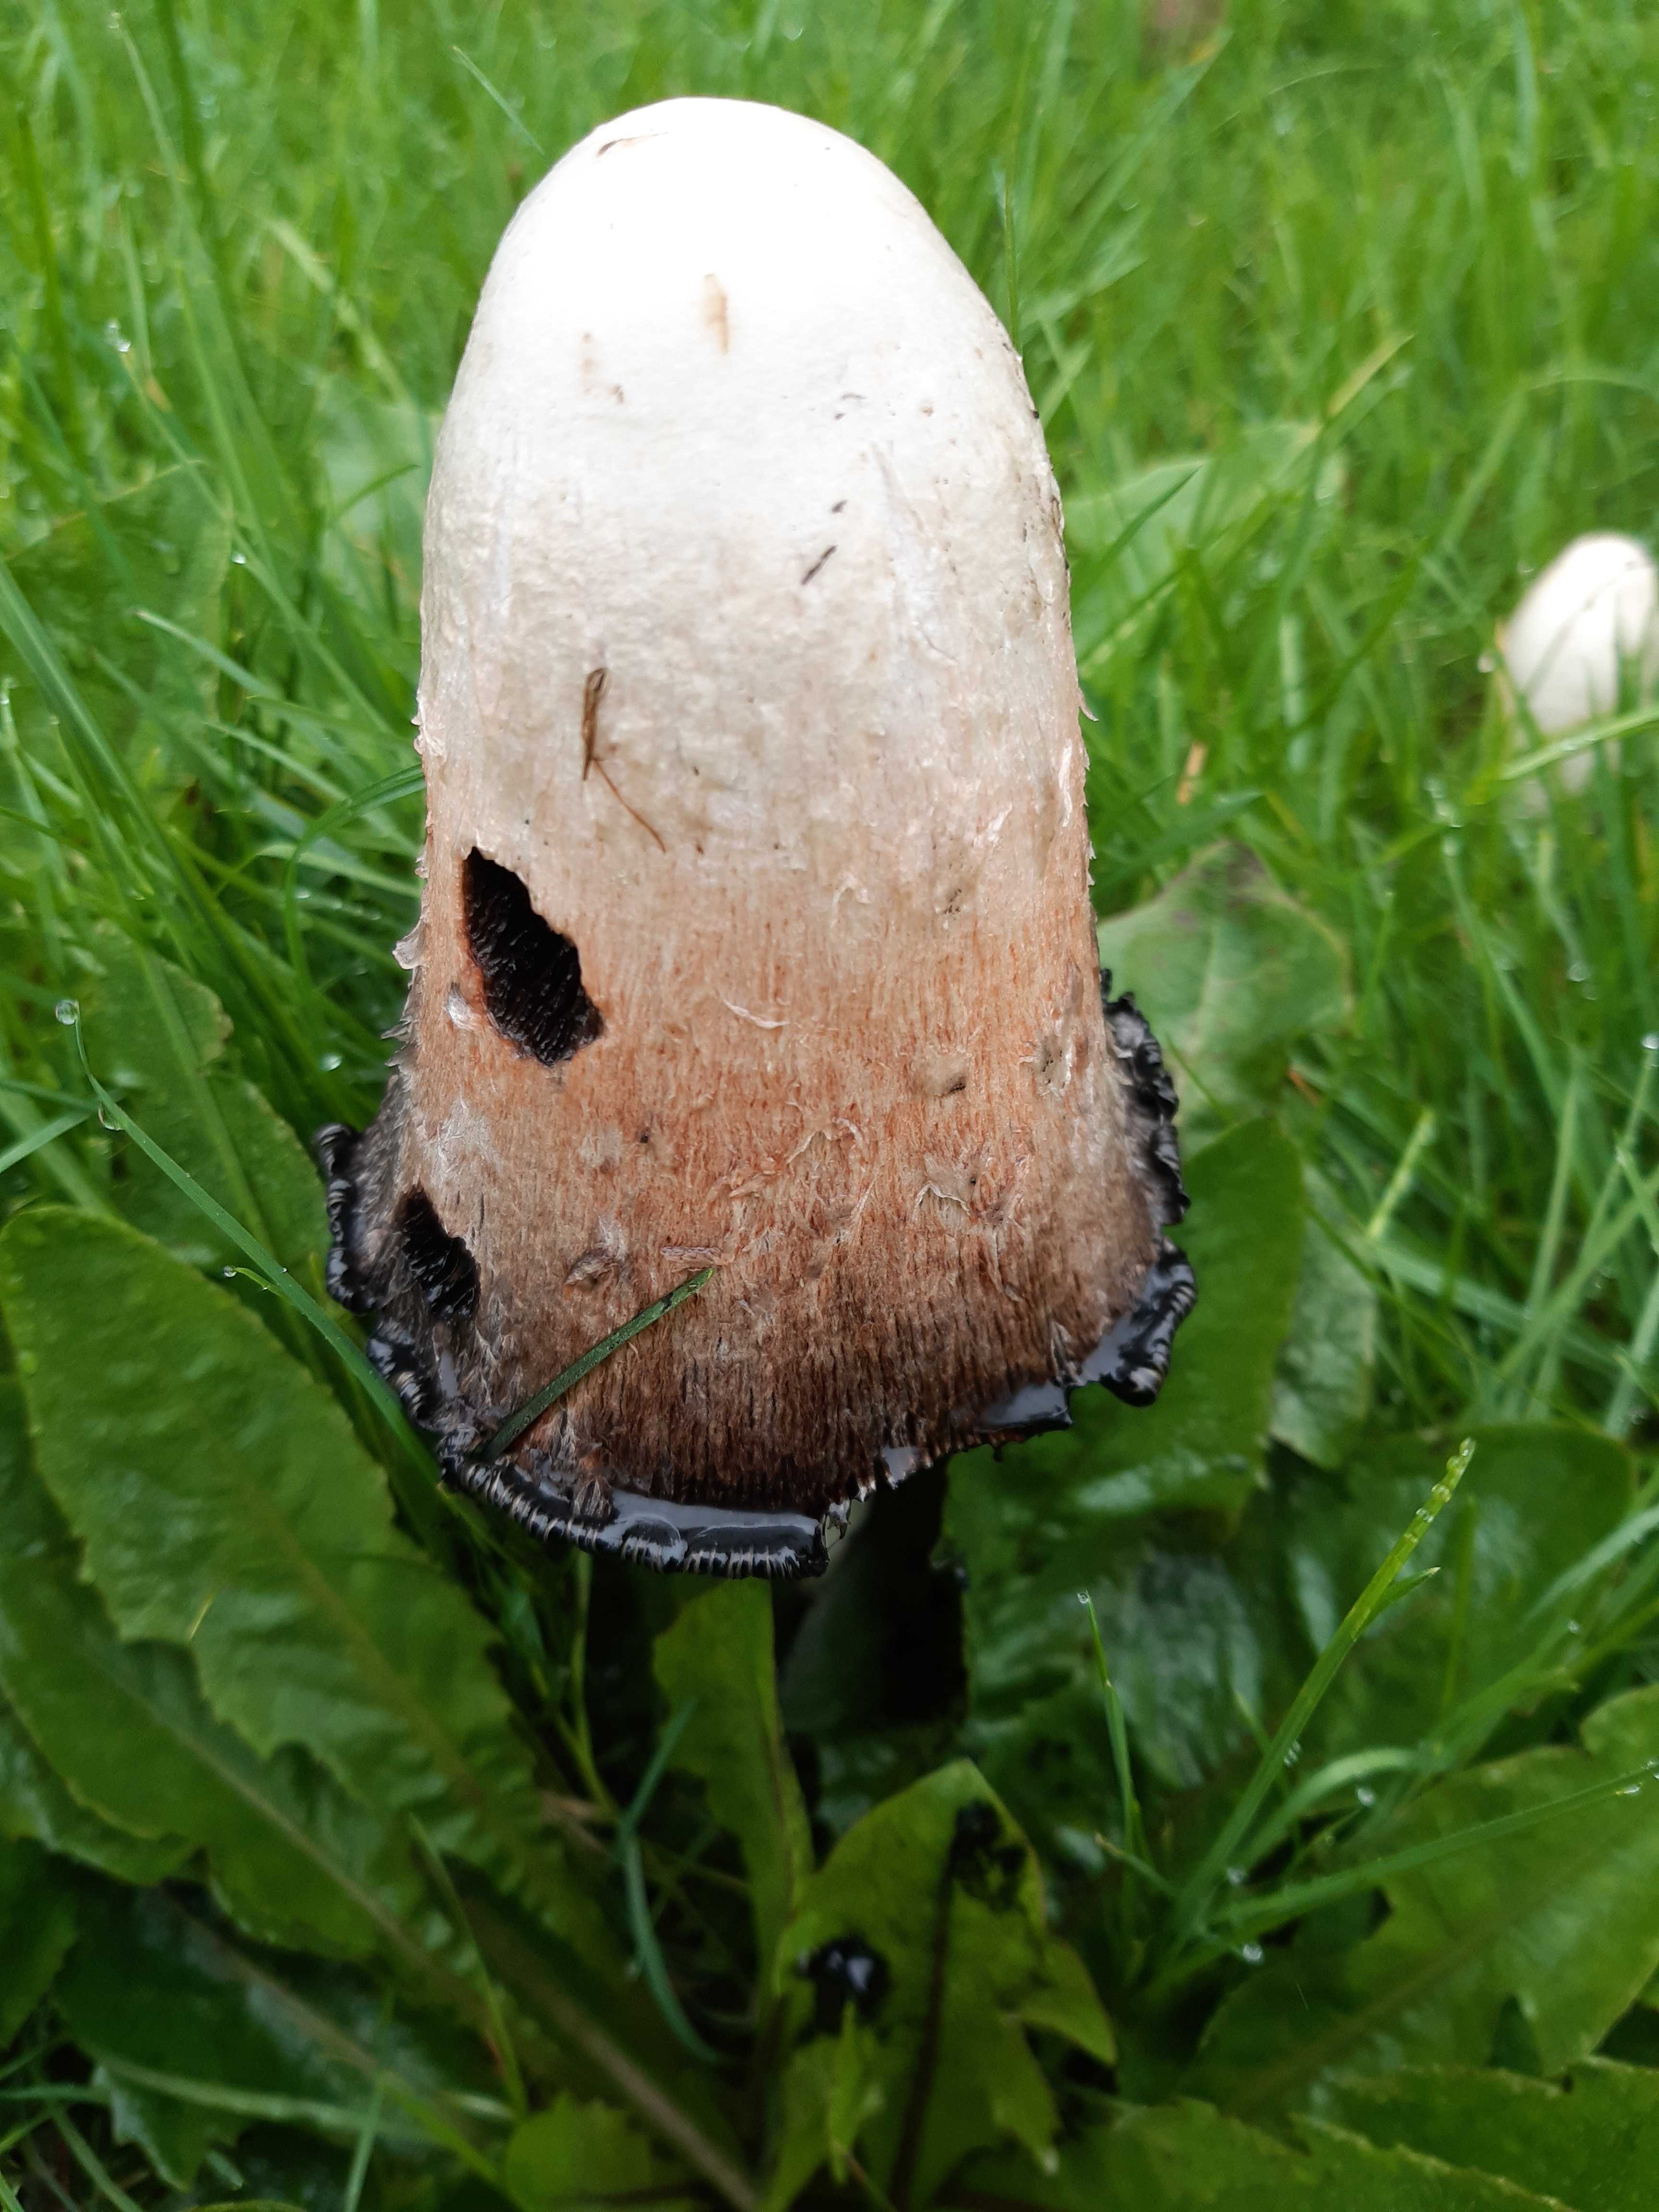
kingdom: Fungi
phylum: Basidiomycota
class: Agaricomycetes
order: Agaricales
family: Agaricaceae
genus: Coprinus
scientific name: Coprinus comatus
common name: stor parykhat
